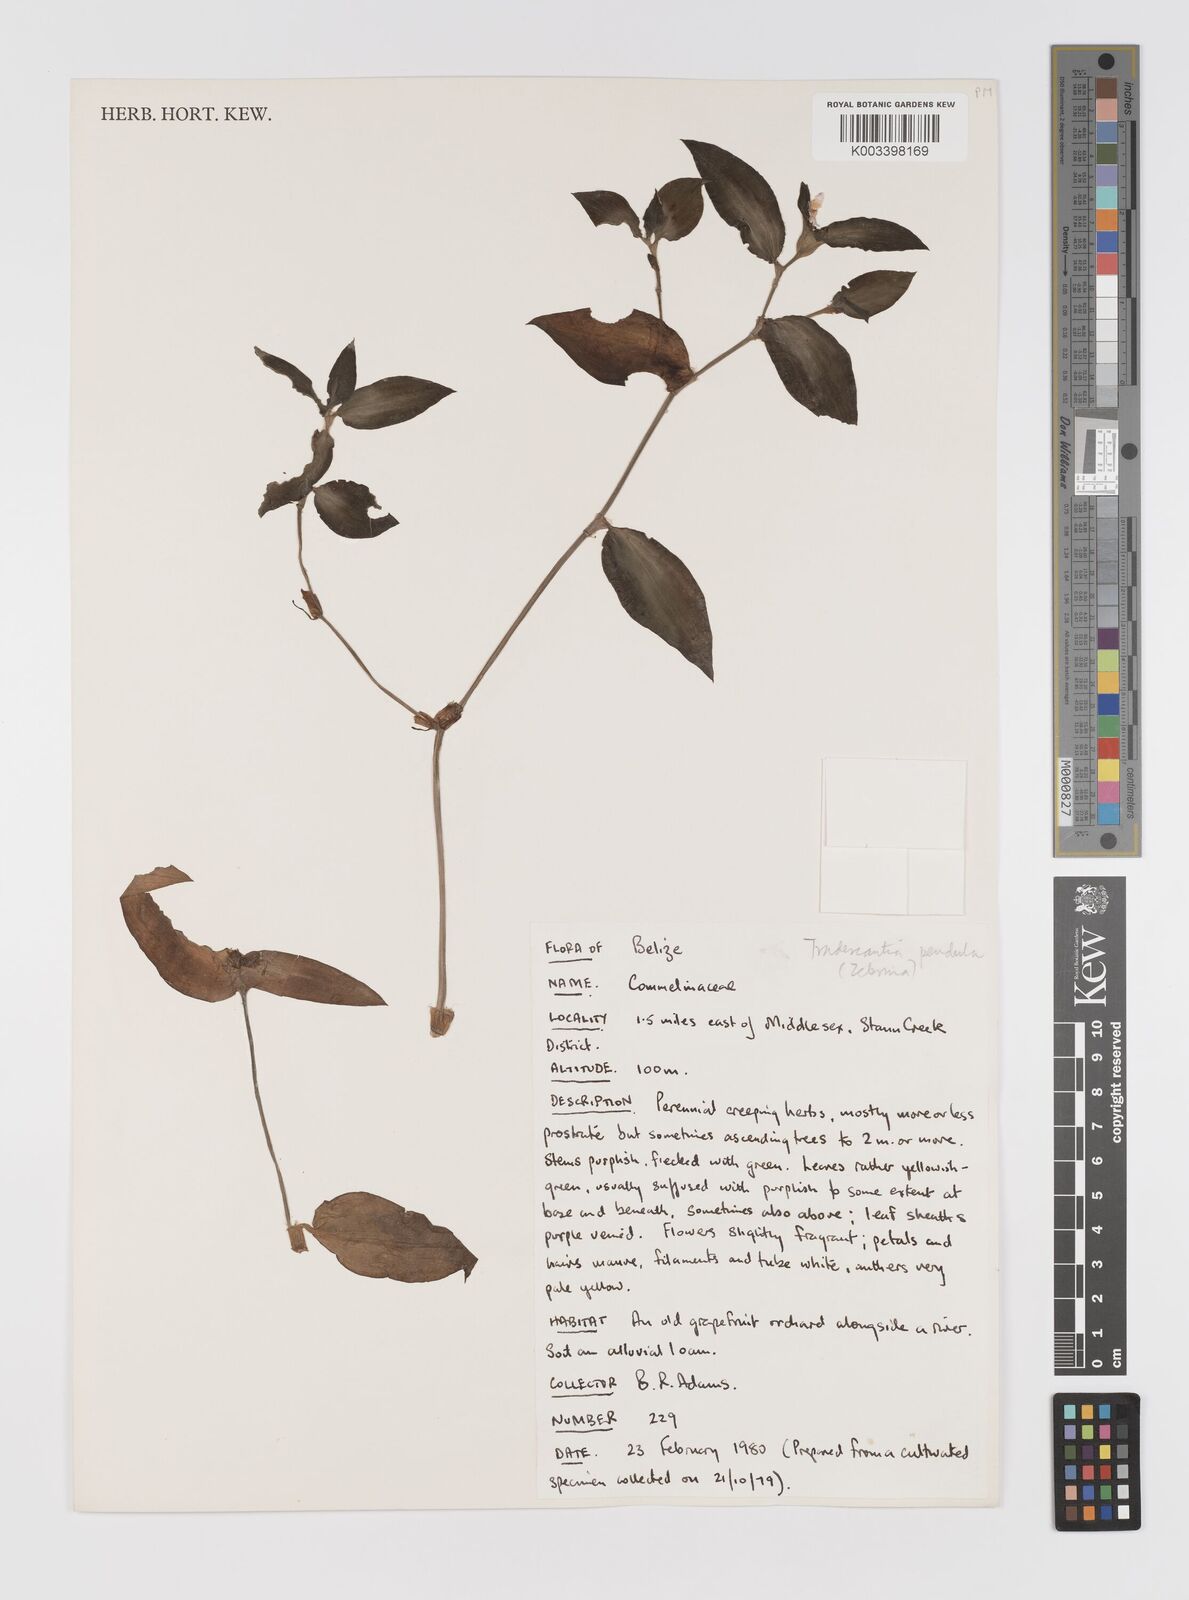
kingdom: Plantae
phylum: Tracheophyta
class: Liliopsida
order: Commelinales
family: Commelinaceae
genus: Tradescantia
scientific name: Tradescantia zebrina
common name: Inchplant
